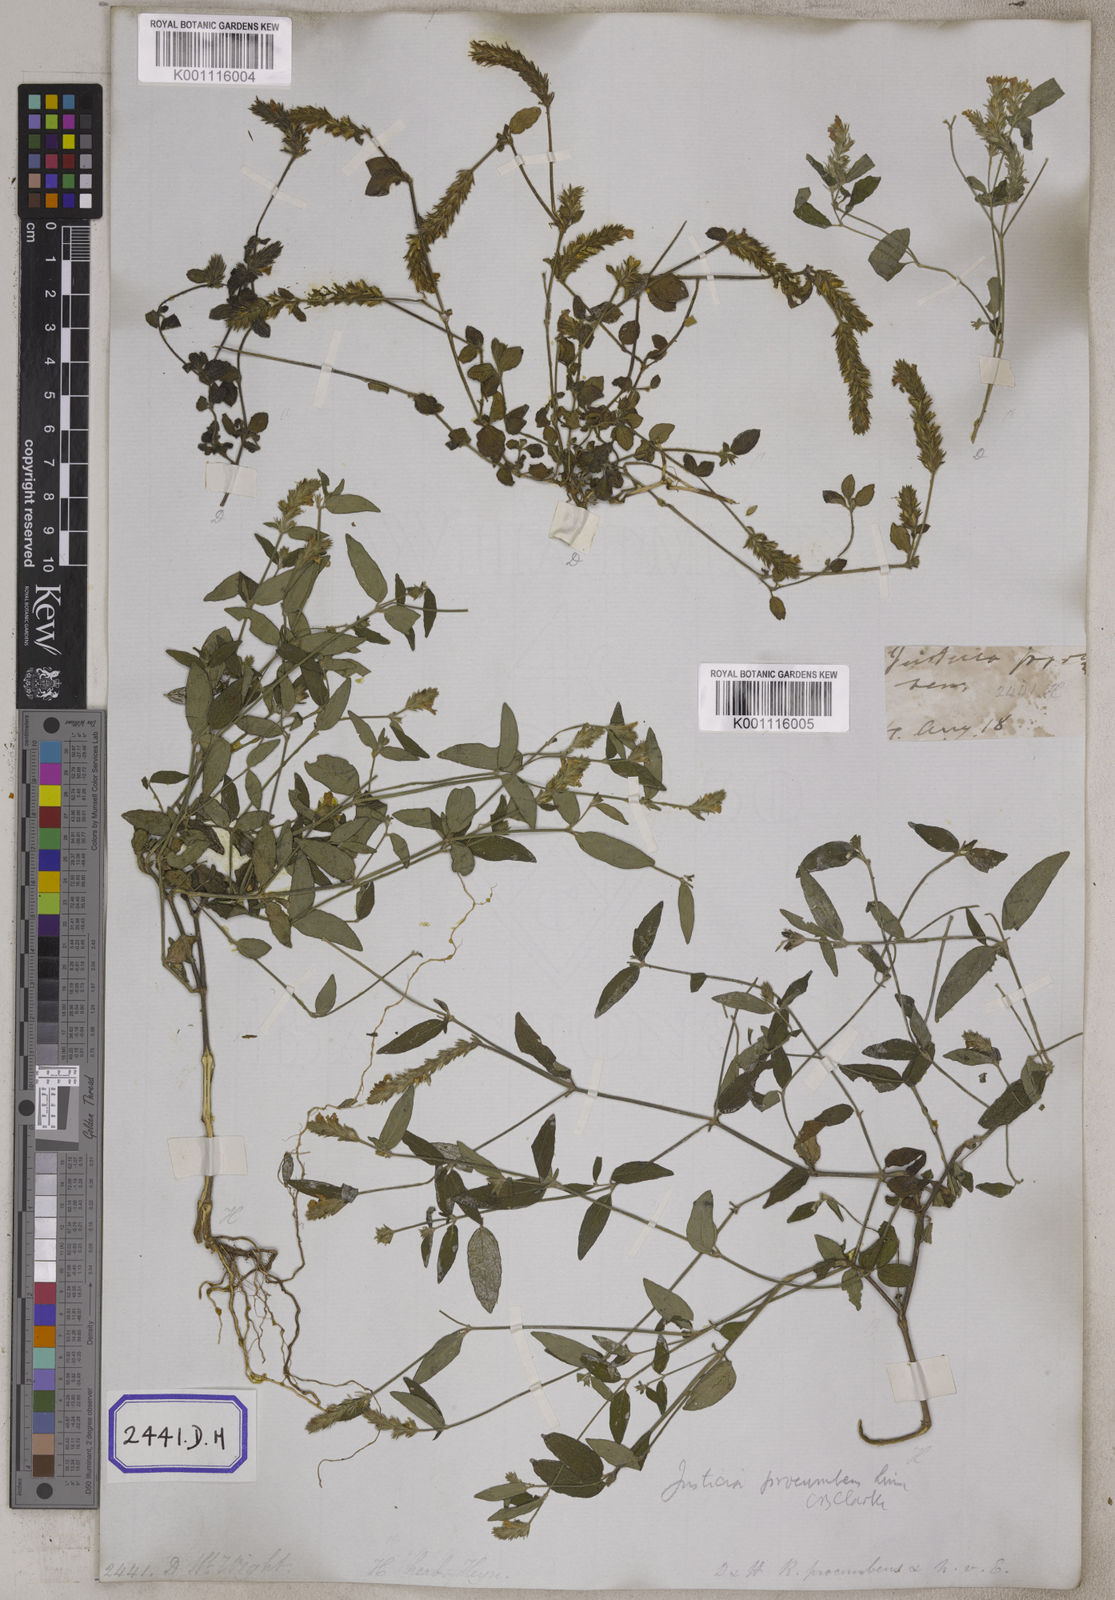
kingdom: Plantae
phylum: Tracheophyta
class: Magnoliopsida
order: Lamiales
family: Acanthaceae
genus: Rostellularia
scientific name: Rostellularia procumbens
